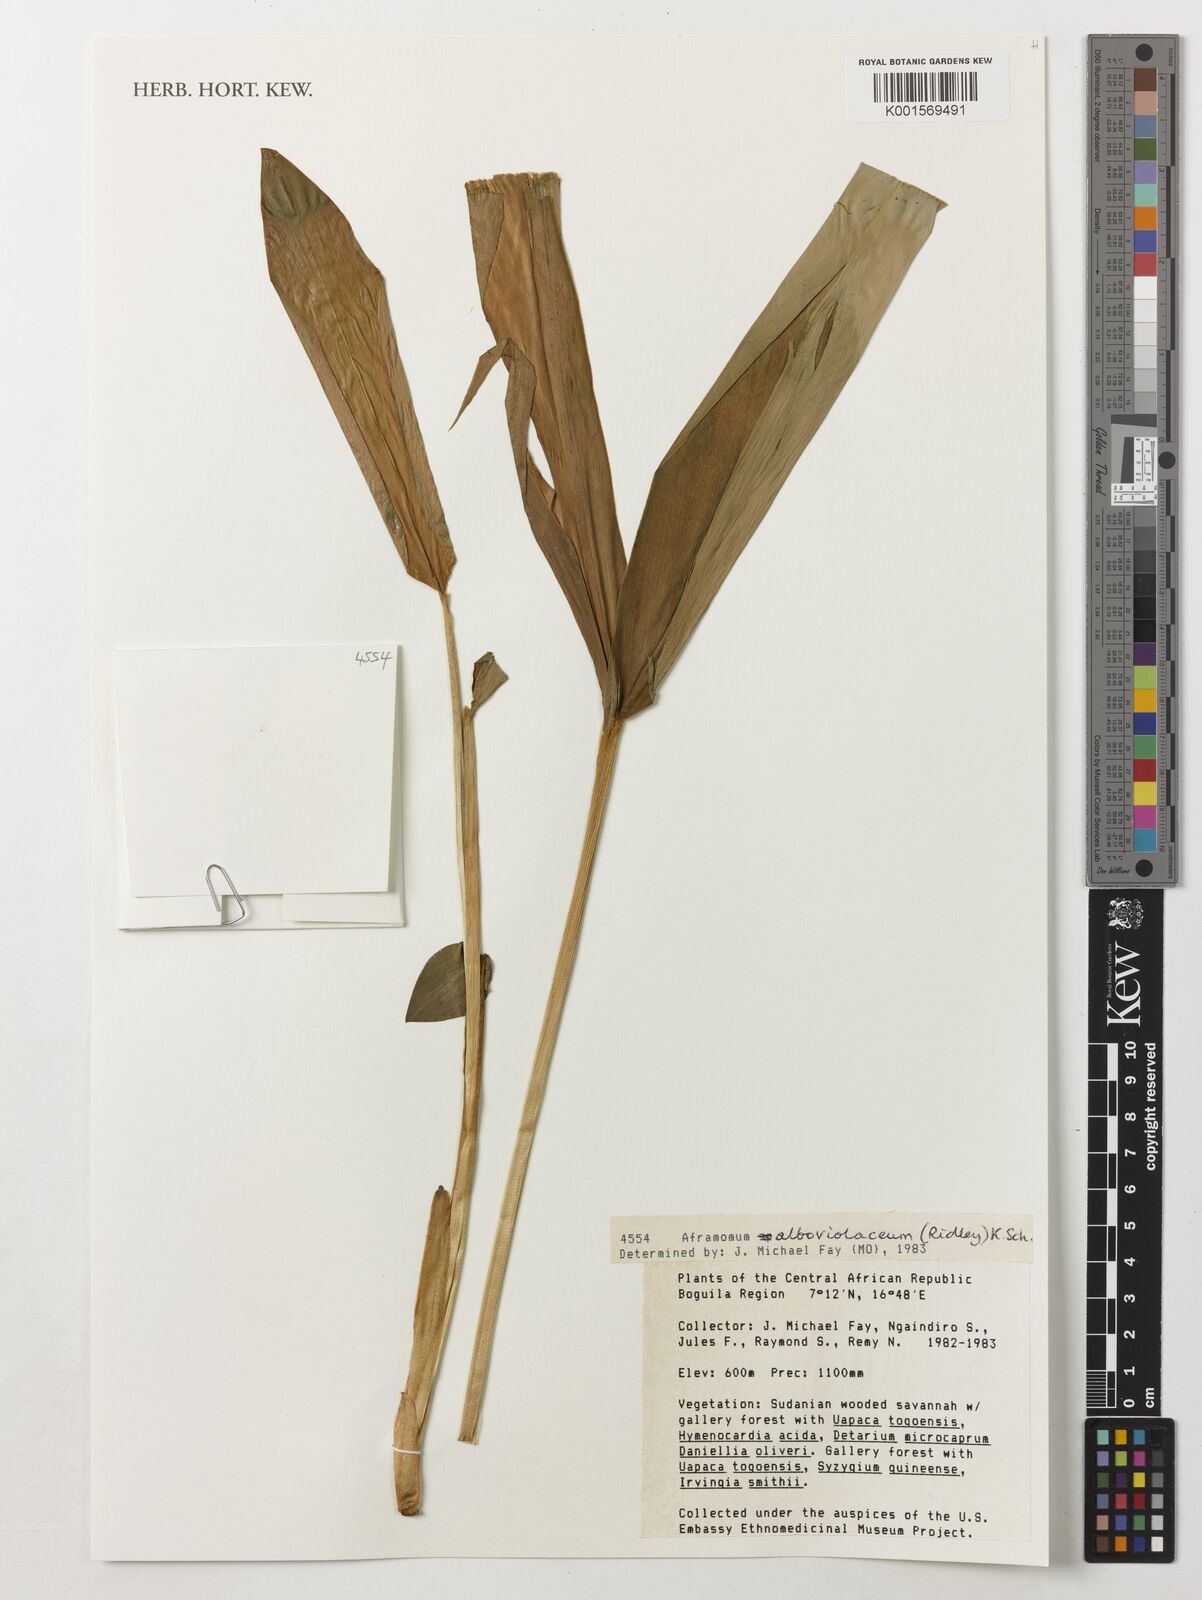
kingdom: Plantae
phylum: Tracheophyta
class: Liliopsida
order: Zingiberales
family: Zingiberaceae
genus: Aframomum
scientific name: Aframomum alboviolaceum
